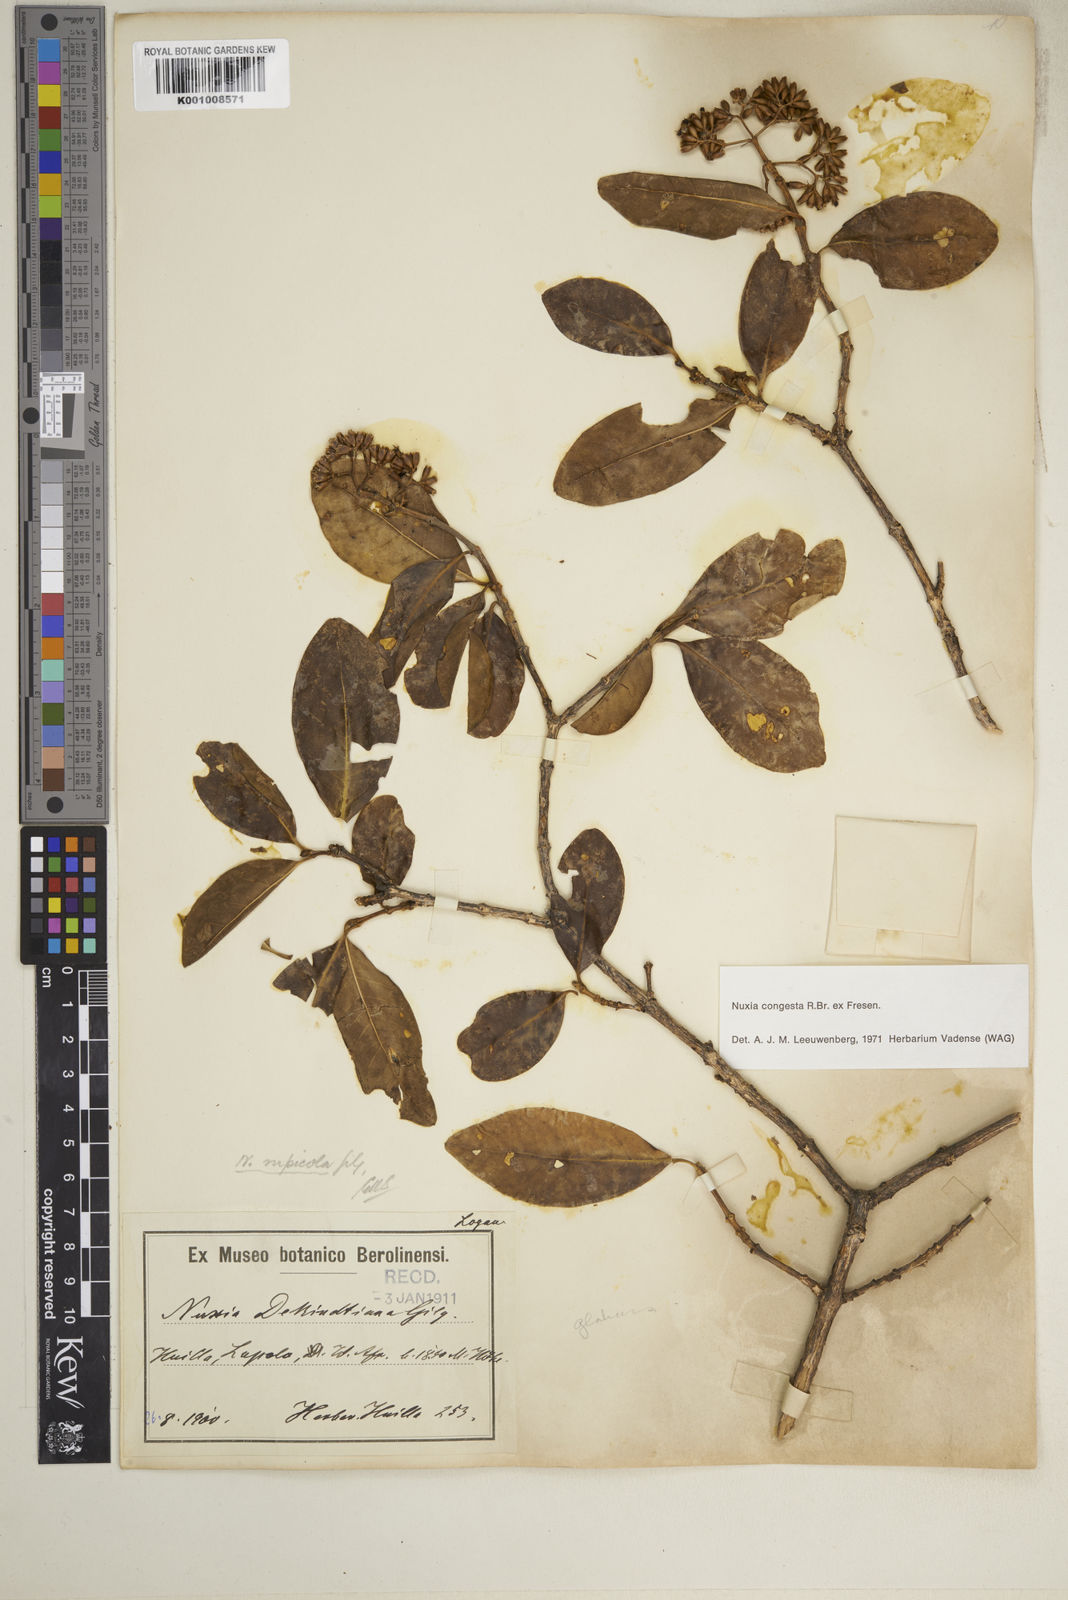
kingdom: Plantae
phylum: Tracheophyta
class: Magnoliopsida
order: Lamiales
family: Stilbaceae
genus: Nuxia
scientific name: Nuxia congesta
